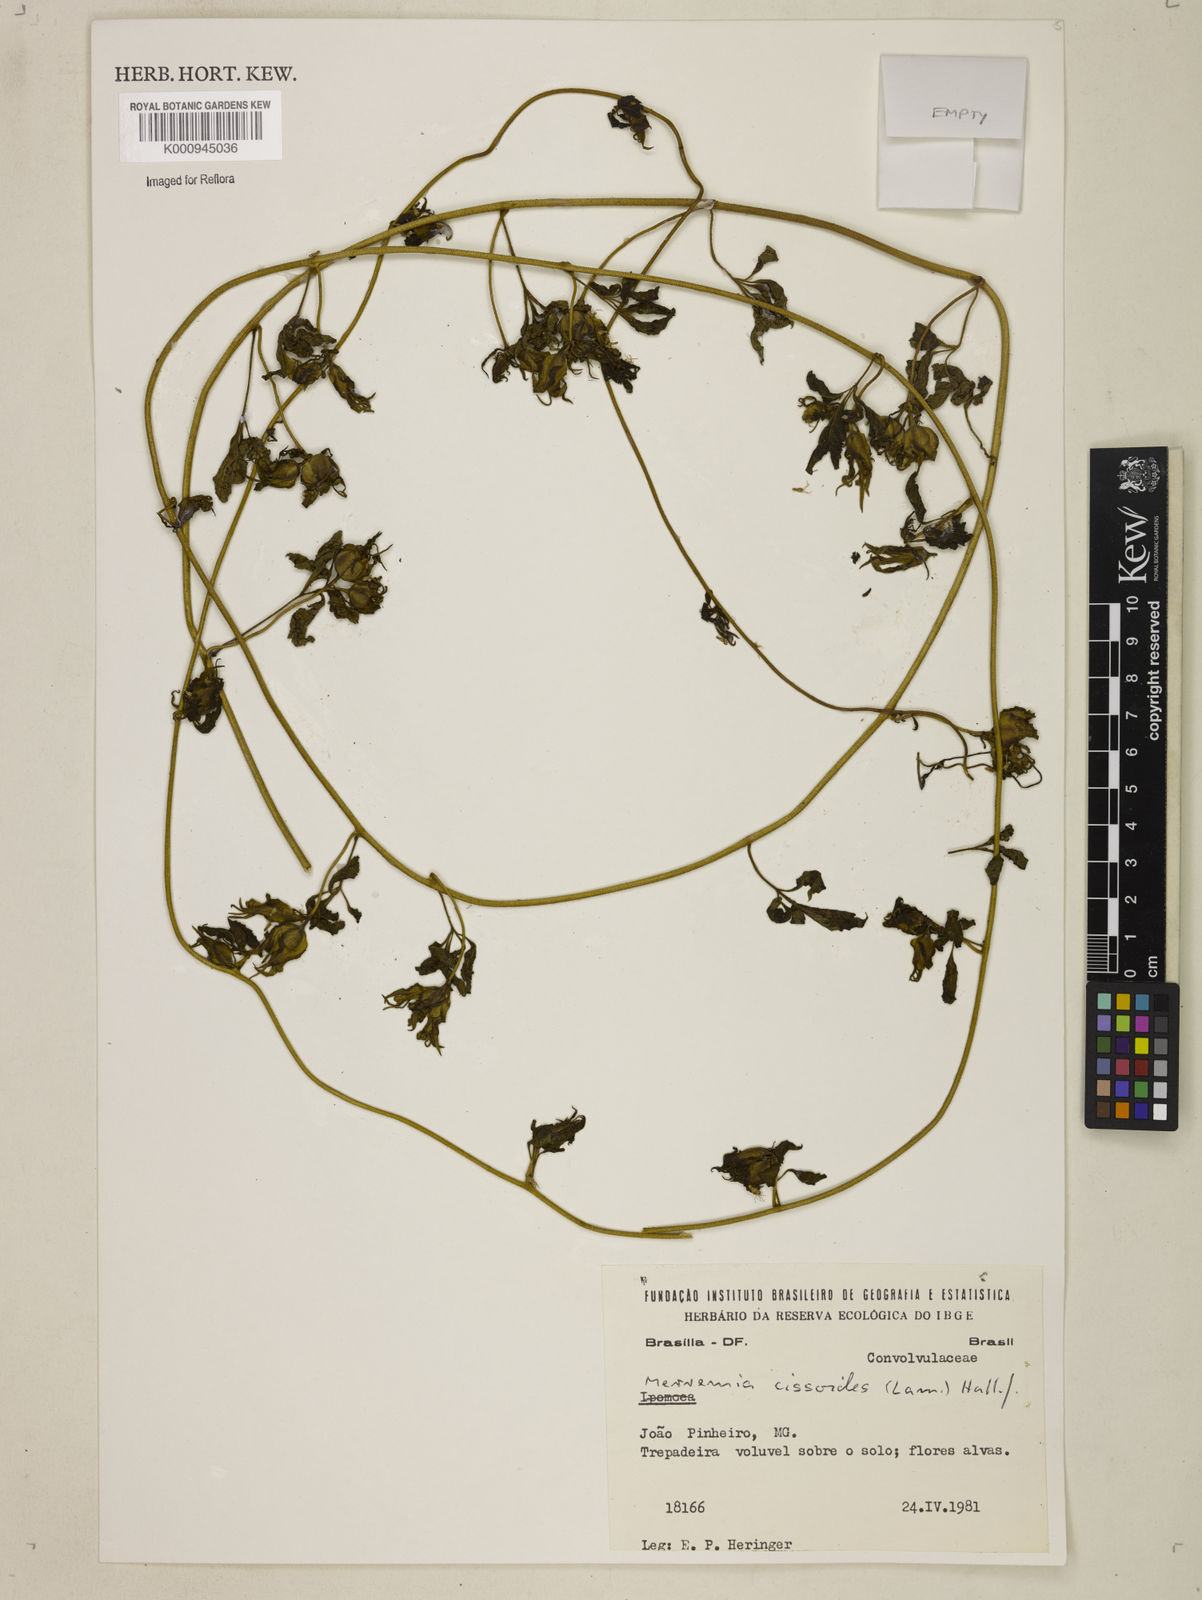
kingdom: Plantae
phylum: Tracheophyta
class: Magnoliopsida
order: Solanales
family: Convolvulaceae
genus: Distimake
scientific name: Distimake cissoides
